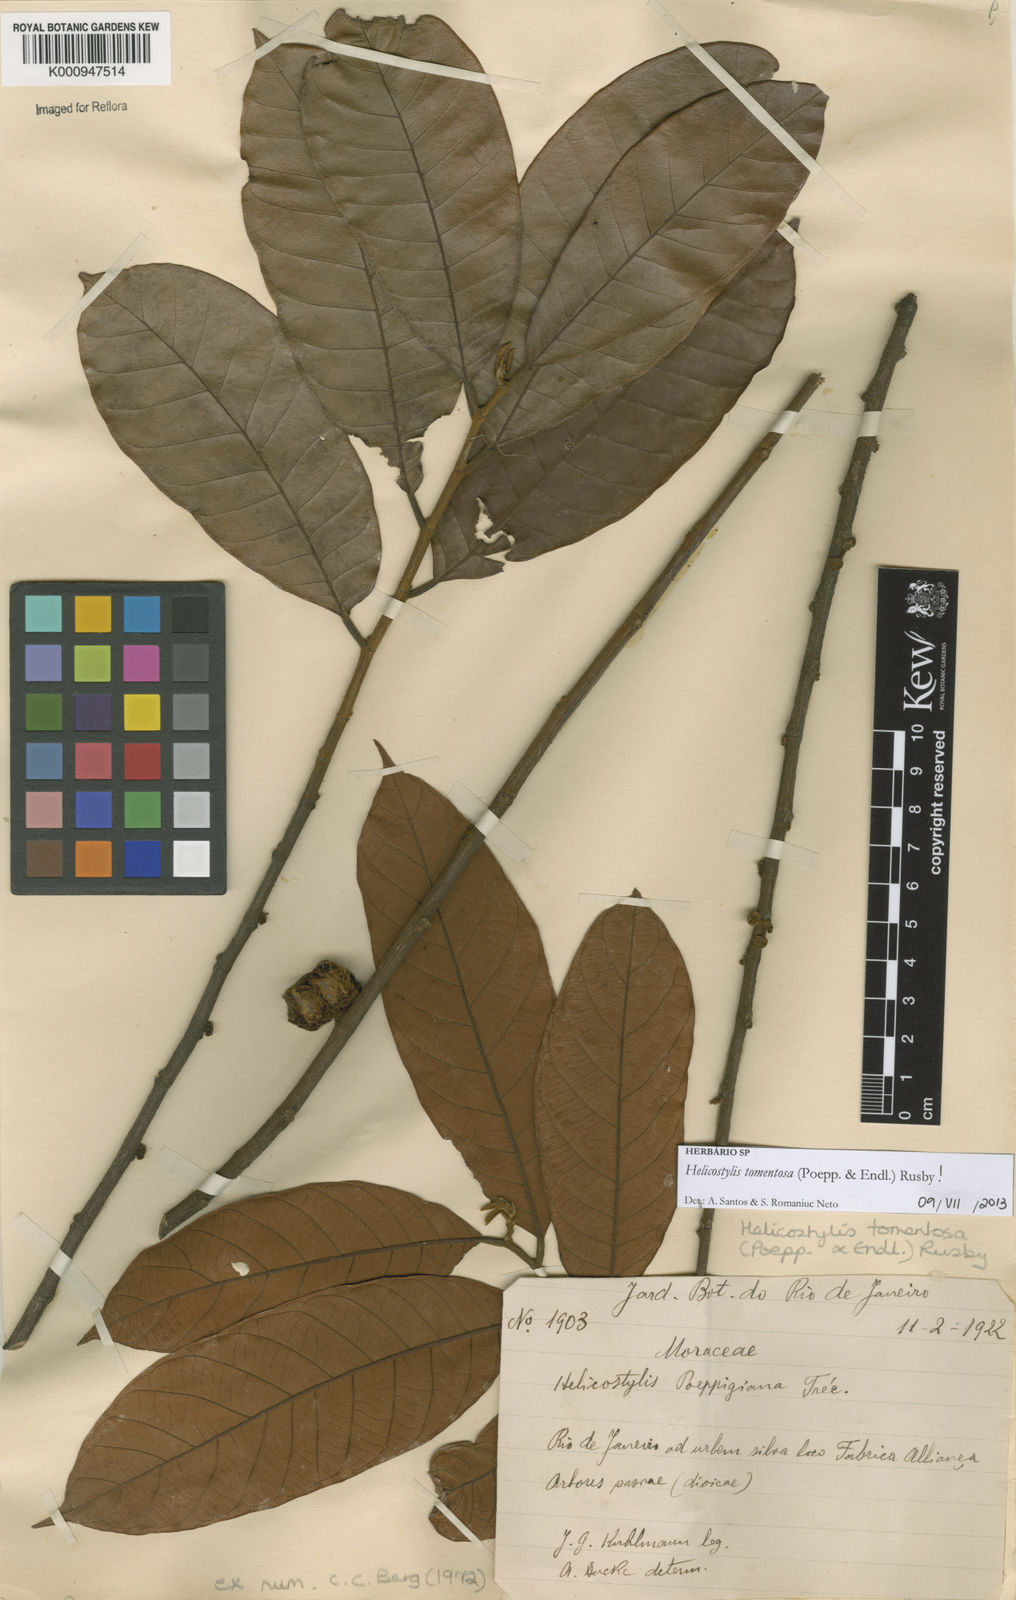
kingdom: Plantae
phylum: Tracheophyta
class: Magnoliopsida
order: Rosales
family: Moraceae
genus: Helicostylis
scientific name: Helicostylis
